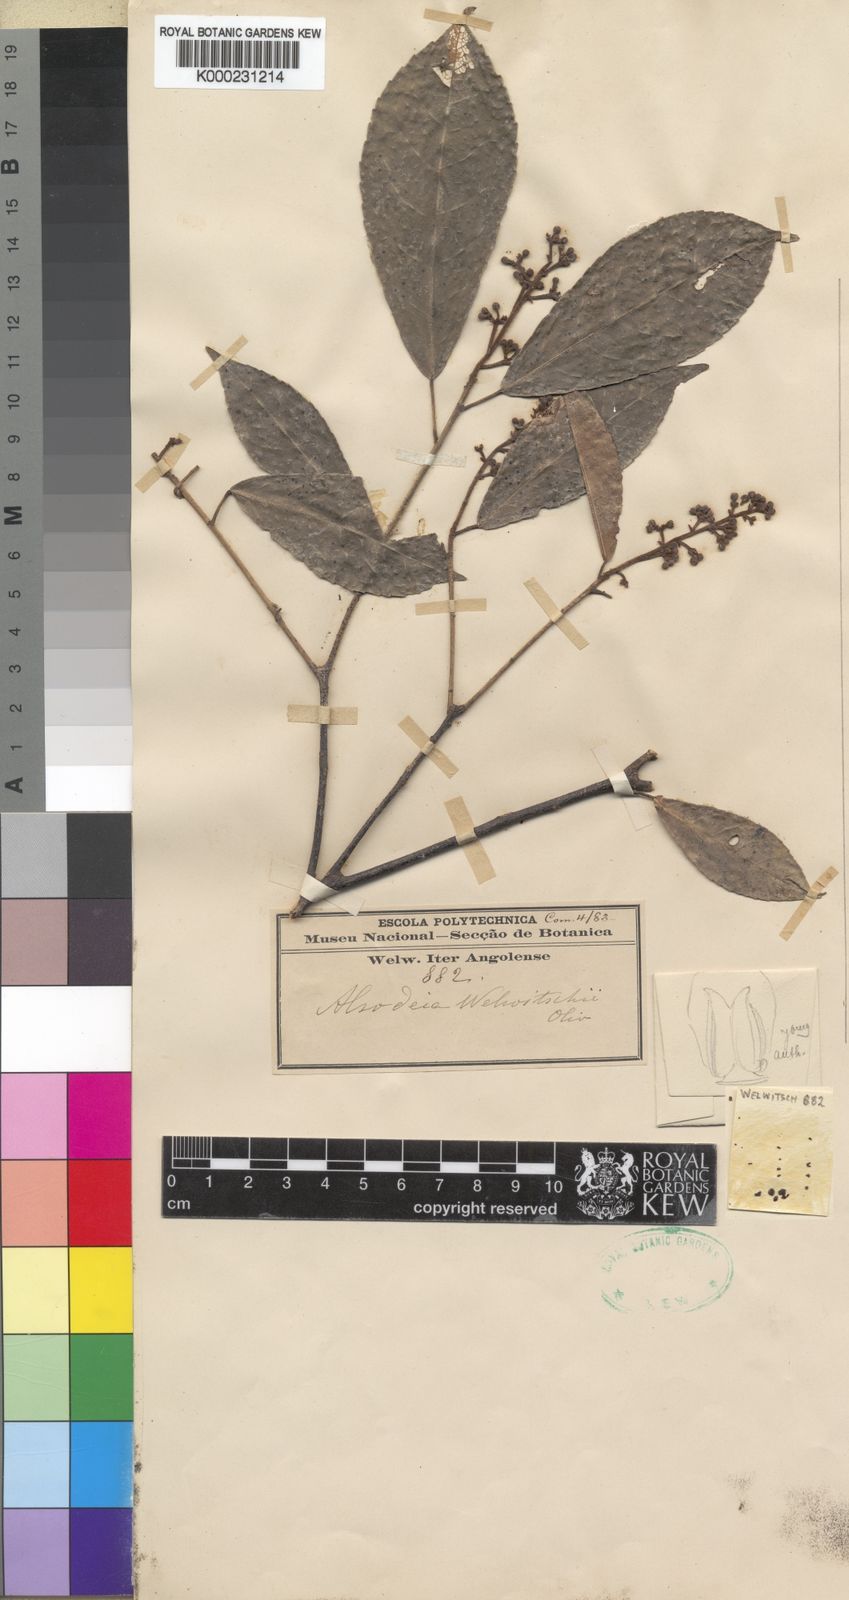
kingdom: Plantae
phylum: Tracheophyta
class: Magnoliopsida
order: Malpighiales
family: Violaceae
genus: Rinorea
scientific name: Rinorea welwitschii
